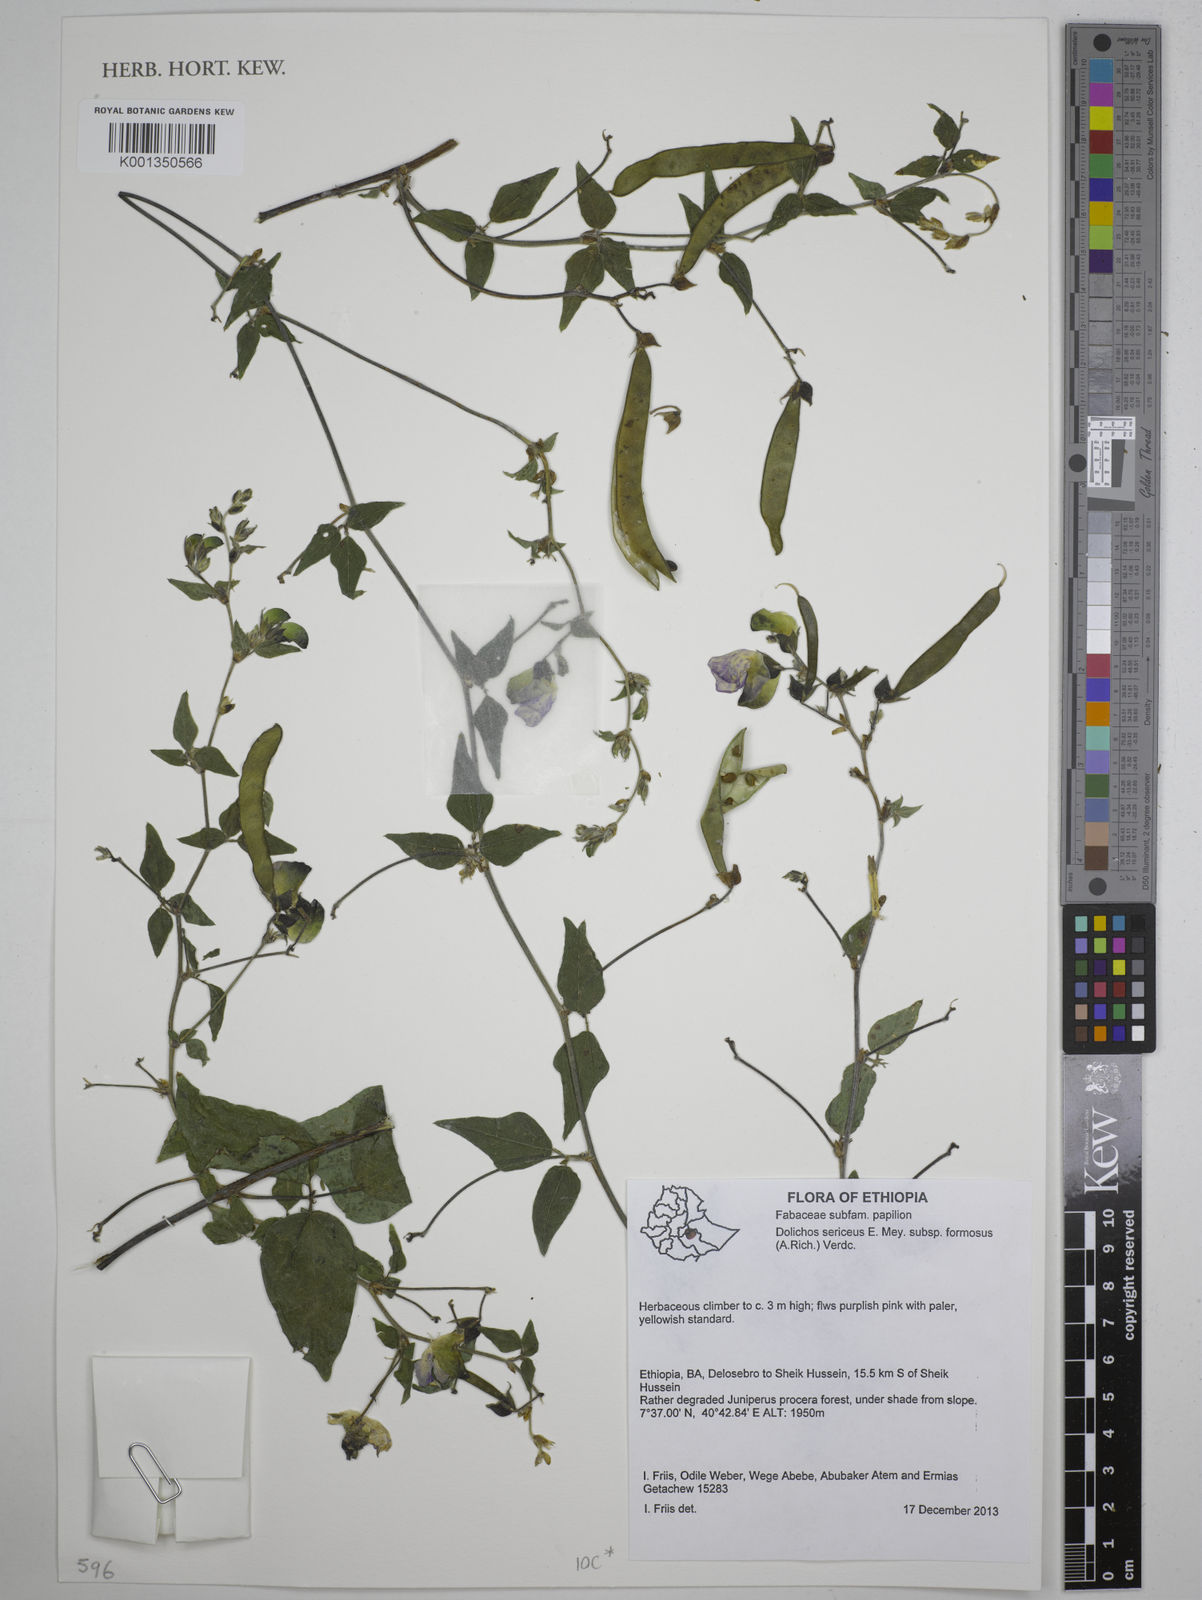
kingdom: Plantae
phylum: Tracheophyta
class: Magnoliopsida
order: Fabales
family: Fabaceae
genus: Dolichos
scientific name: Dolichos
